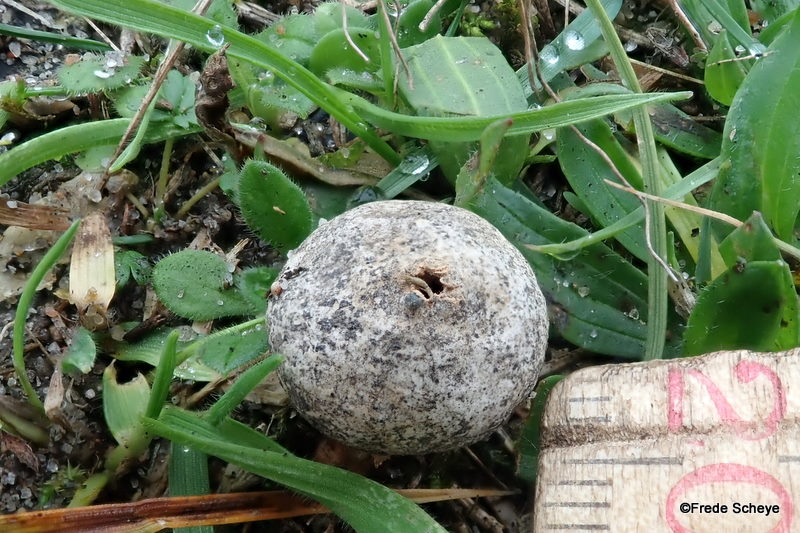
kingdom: Fungi
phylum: Basidiomycota
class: Agaricomycetes
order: Agaricales
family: Agaricaceae
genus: Tulostoma
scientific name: Tulostoma fimbriatum
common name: frynset stilkbovist
